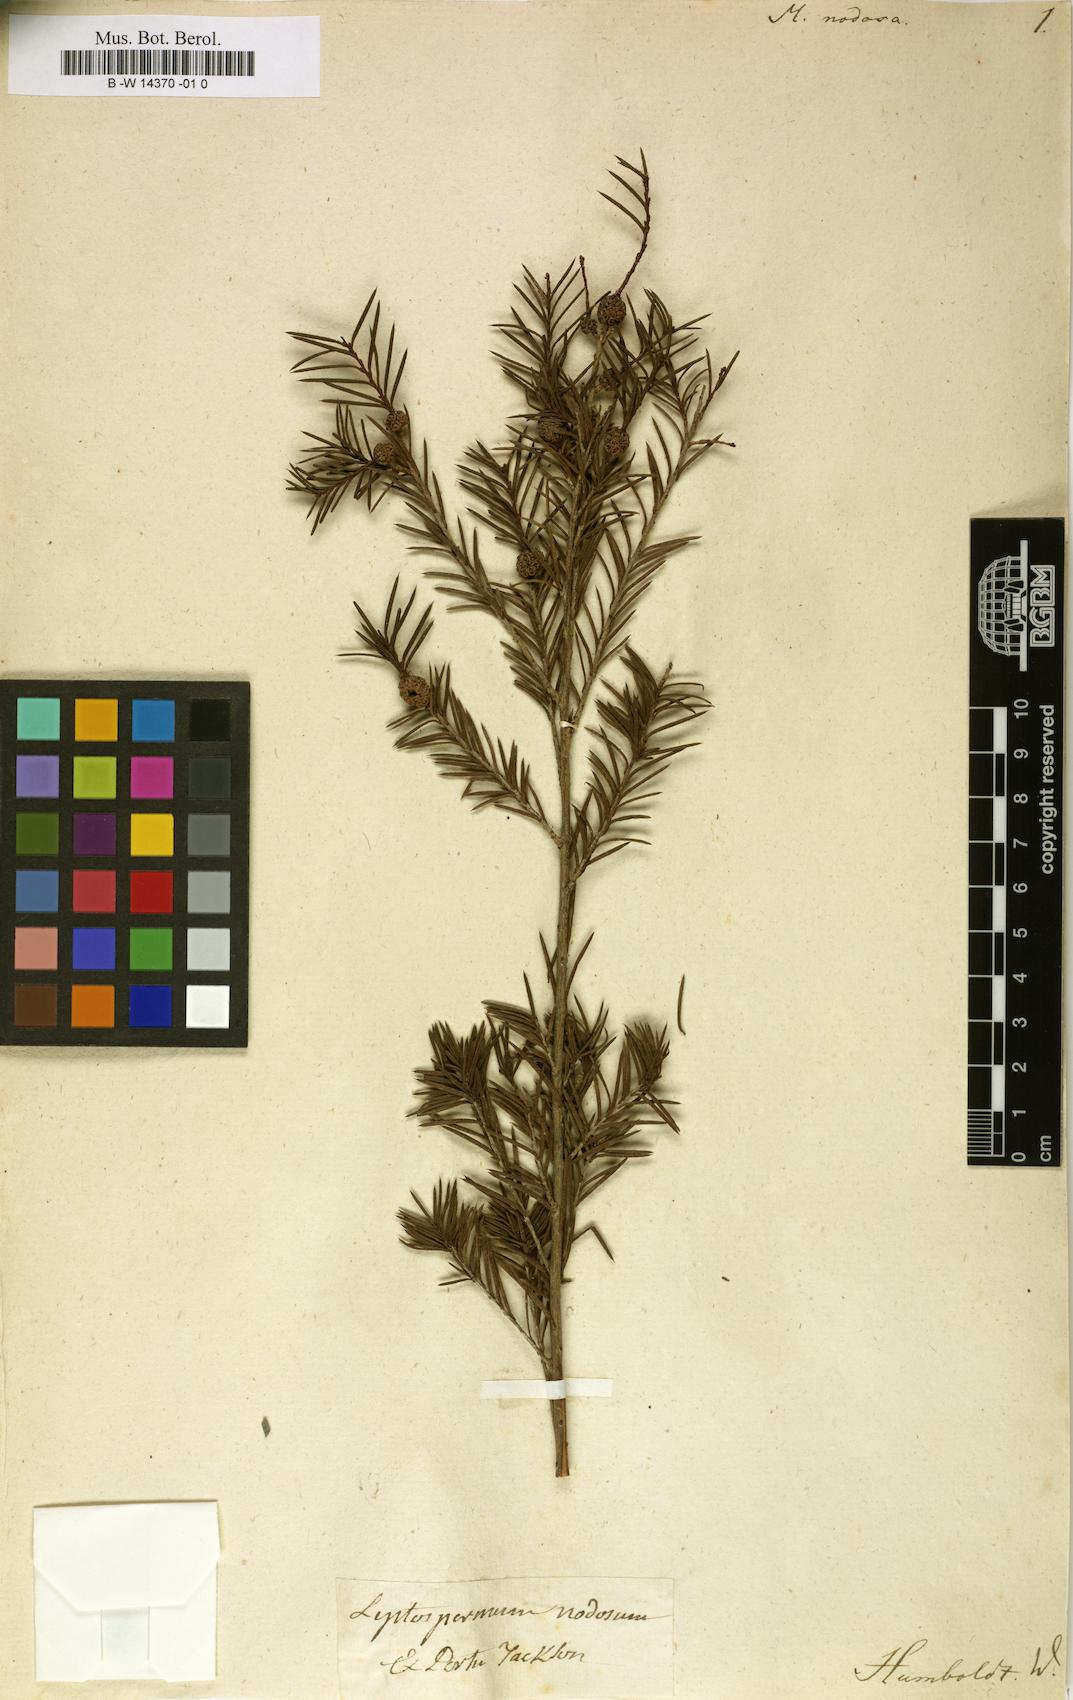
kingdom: Plantae
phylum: Tracheophyta
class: Magnoliopsida
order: Myrtales
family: Myrtaceae
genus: Melaleuca
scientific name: Melaleuca nodosa
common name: Prickly-leaf paperbark
